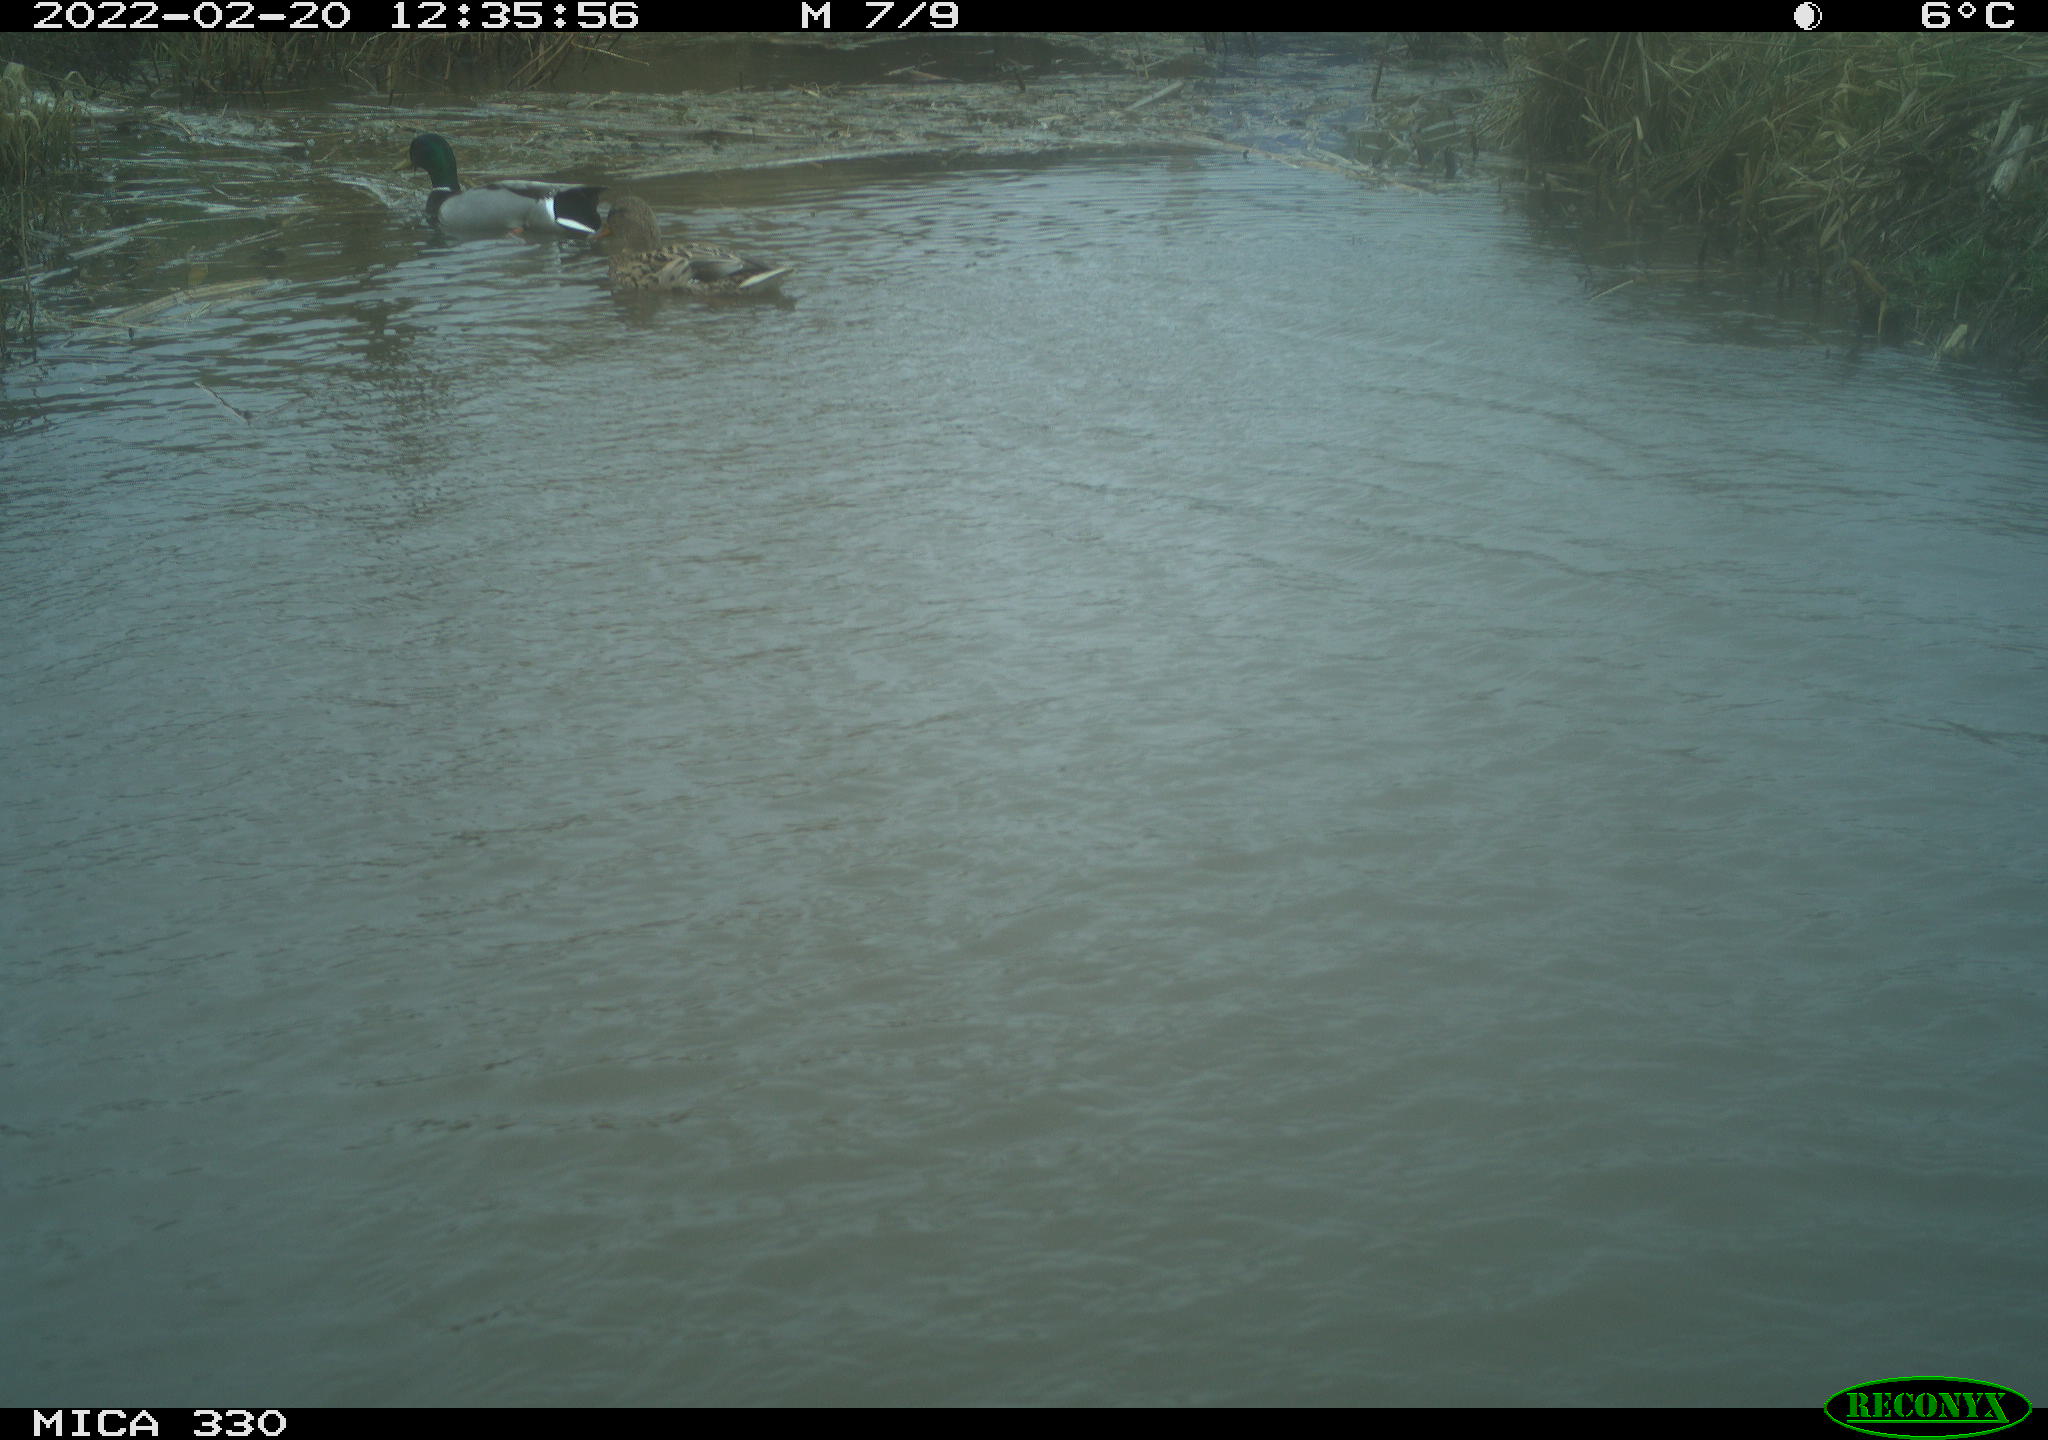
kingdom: Animalia
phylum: Chordata
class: Aves
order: Anseriformes
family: Anatidae
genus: Anas
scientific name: Anas platyrhynchos
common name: Mallard
